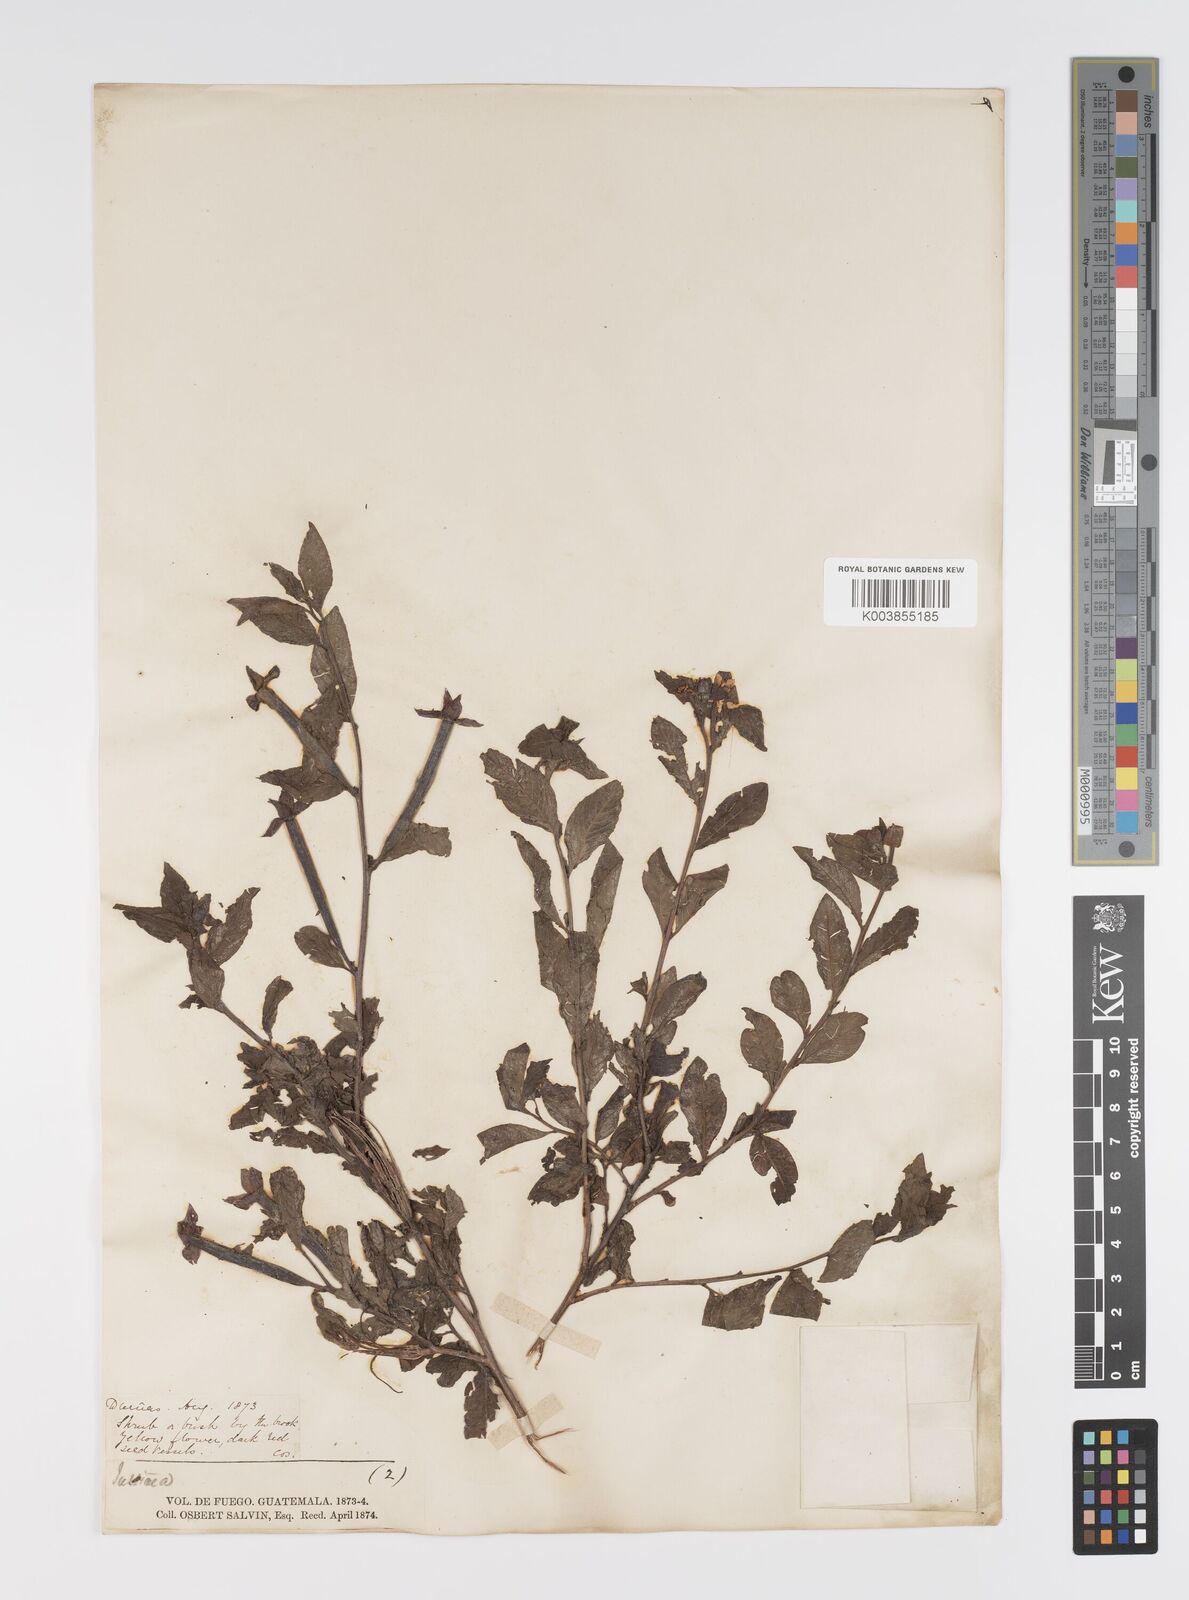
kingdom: Plantae
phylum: Tracheophyta
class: Magnoliopsida
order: Myrtales
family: Onagraceae
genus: Ludwigia
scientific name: Ludwigia
